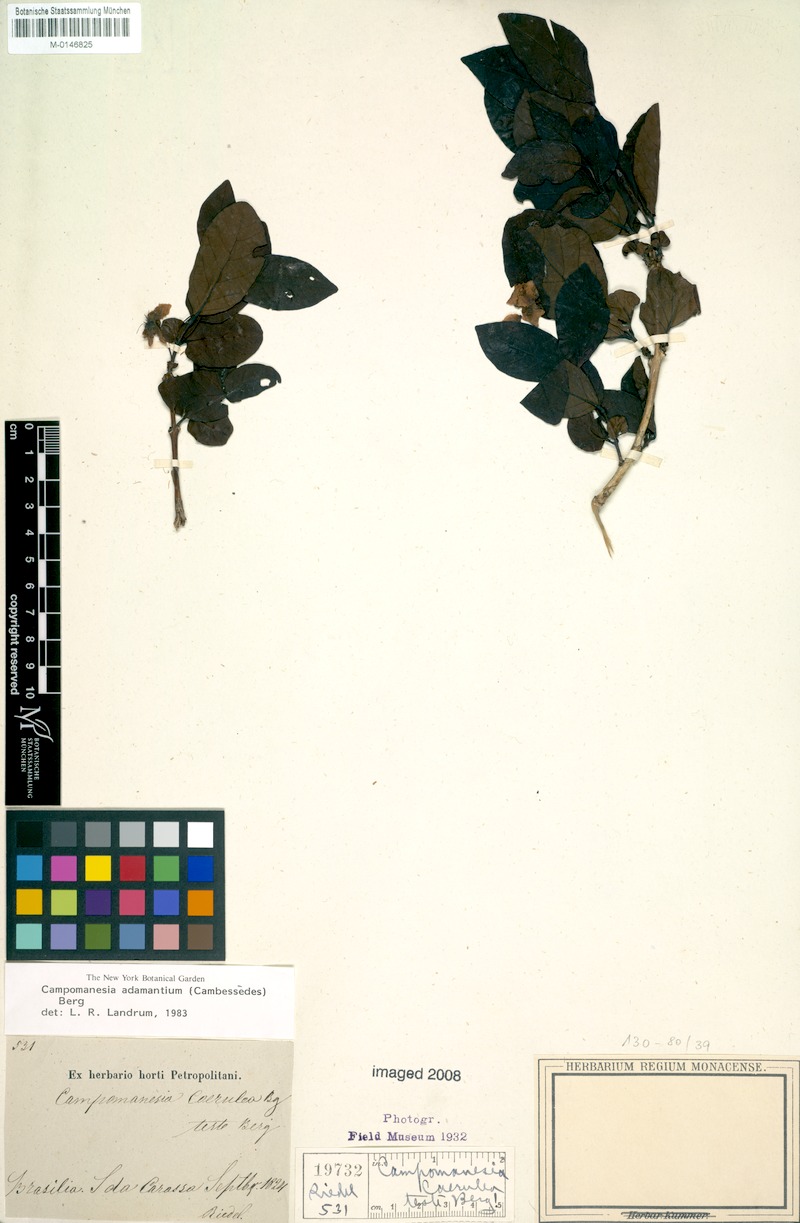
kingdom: Plantae
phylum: Tracheophyta
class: Magnoliopsida
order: Myrtales
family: Myrtaceae
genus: Campomanesia
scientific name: Campomanesia adamantium
